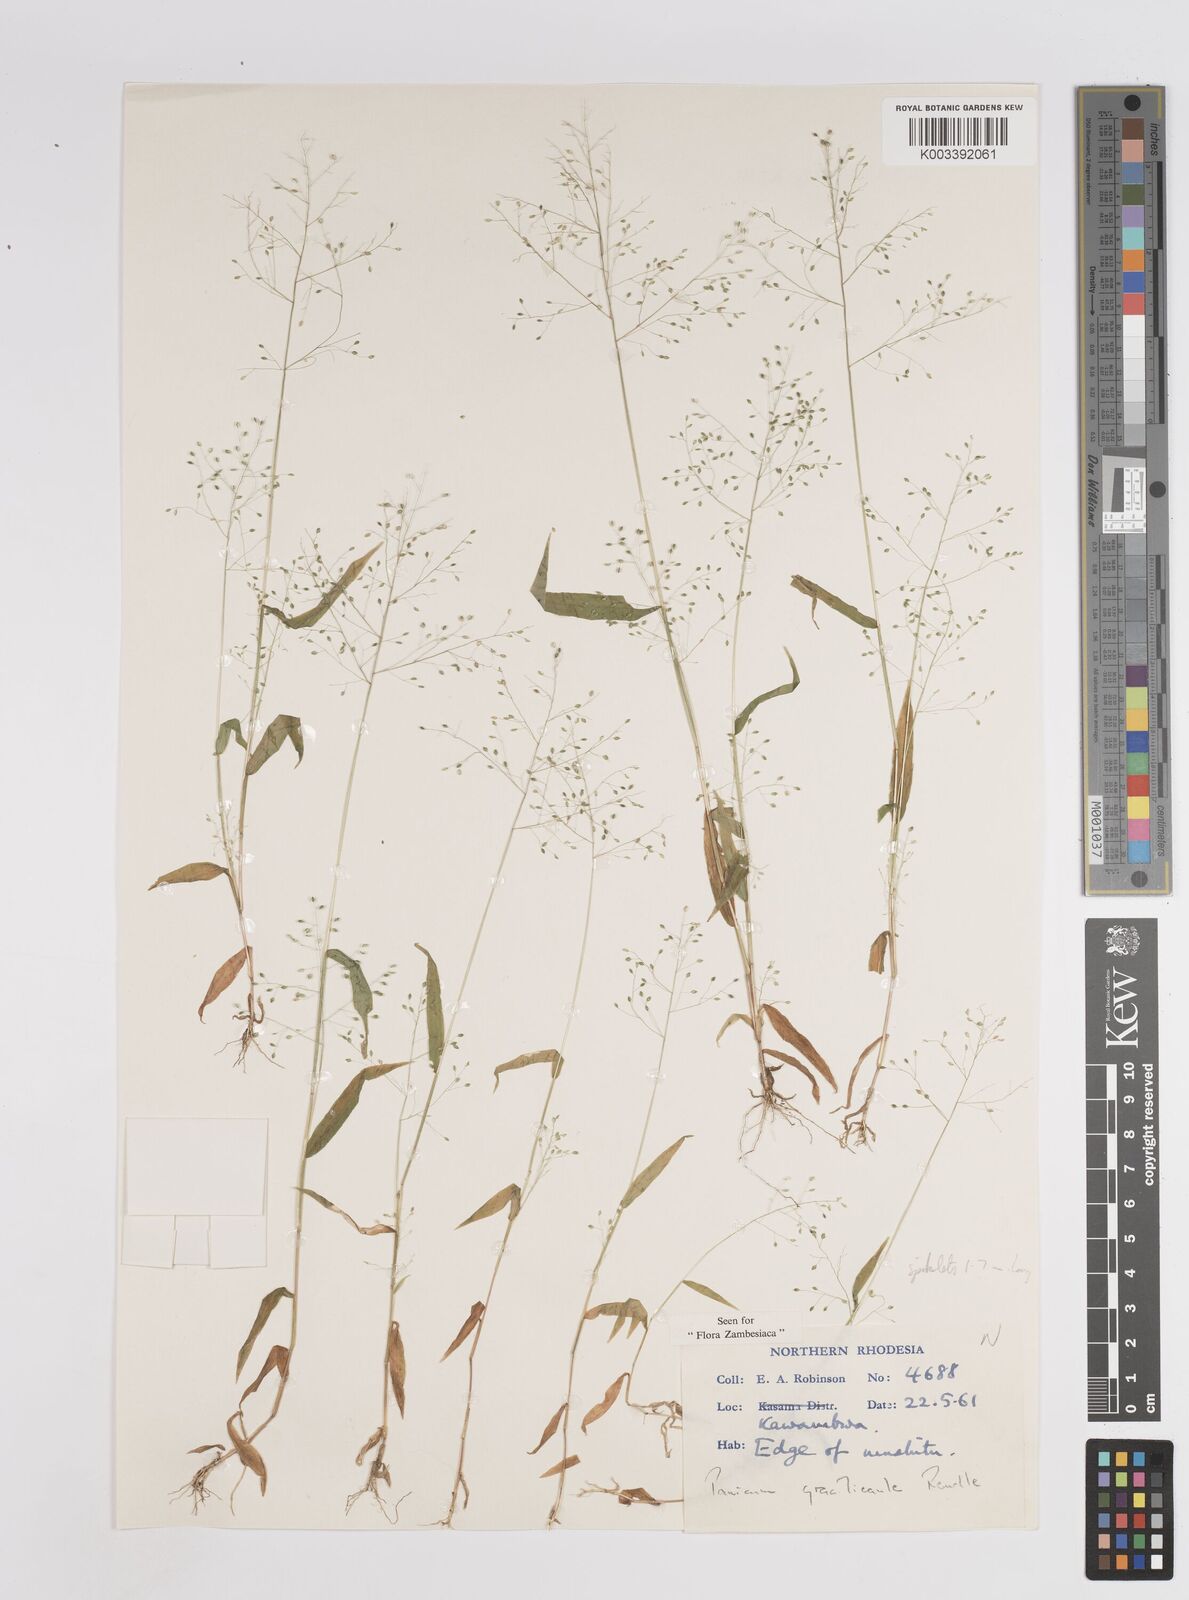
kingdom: Plantae
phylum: Tracheophyta
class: Liliopsida
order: Poales
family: Poaceae
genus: Trichanthecium
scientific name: Trichanthecium gracilicaule
